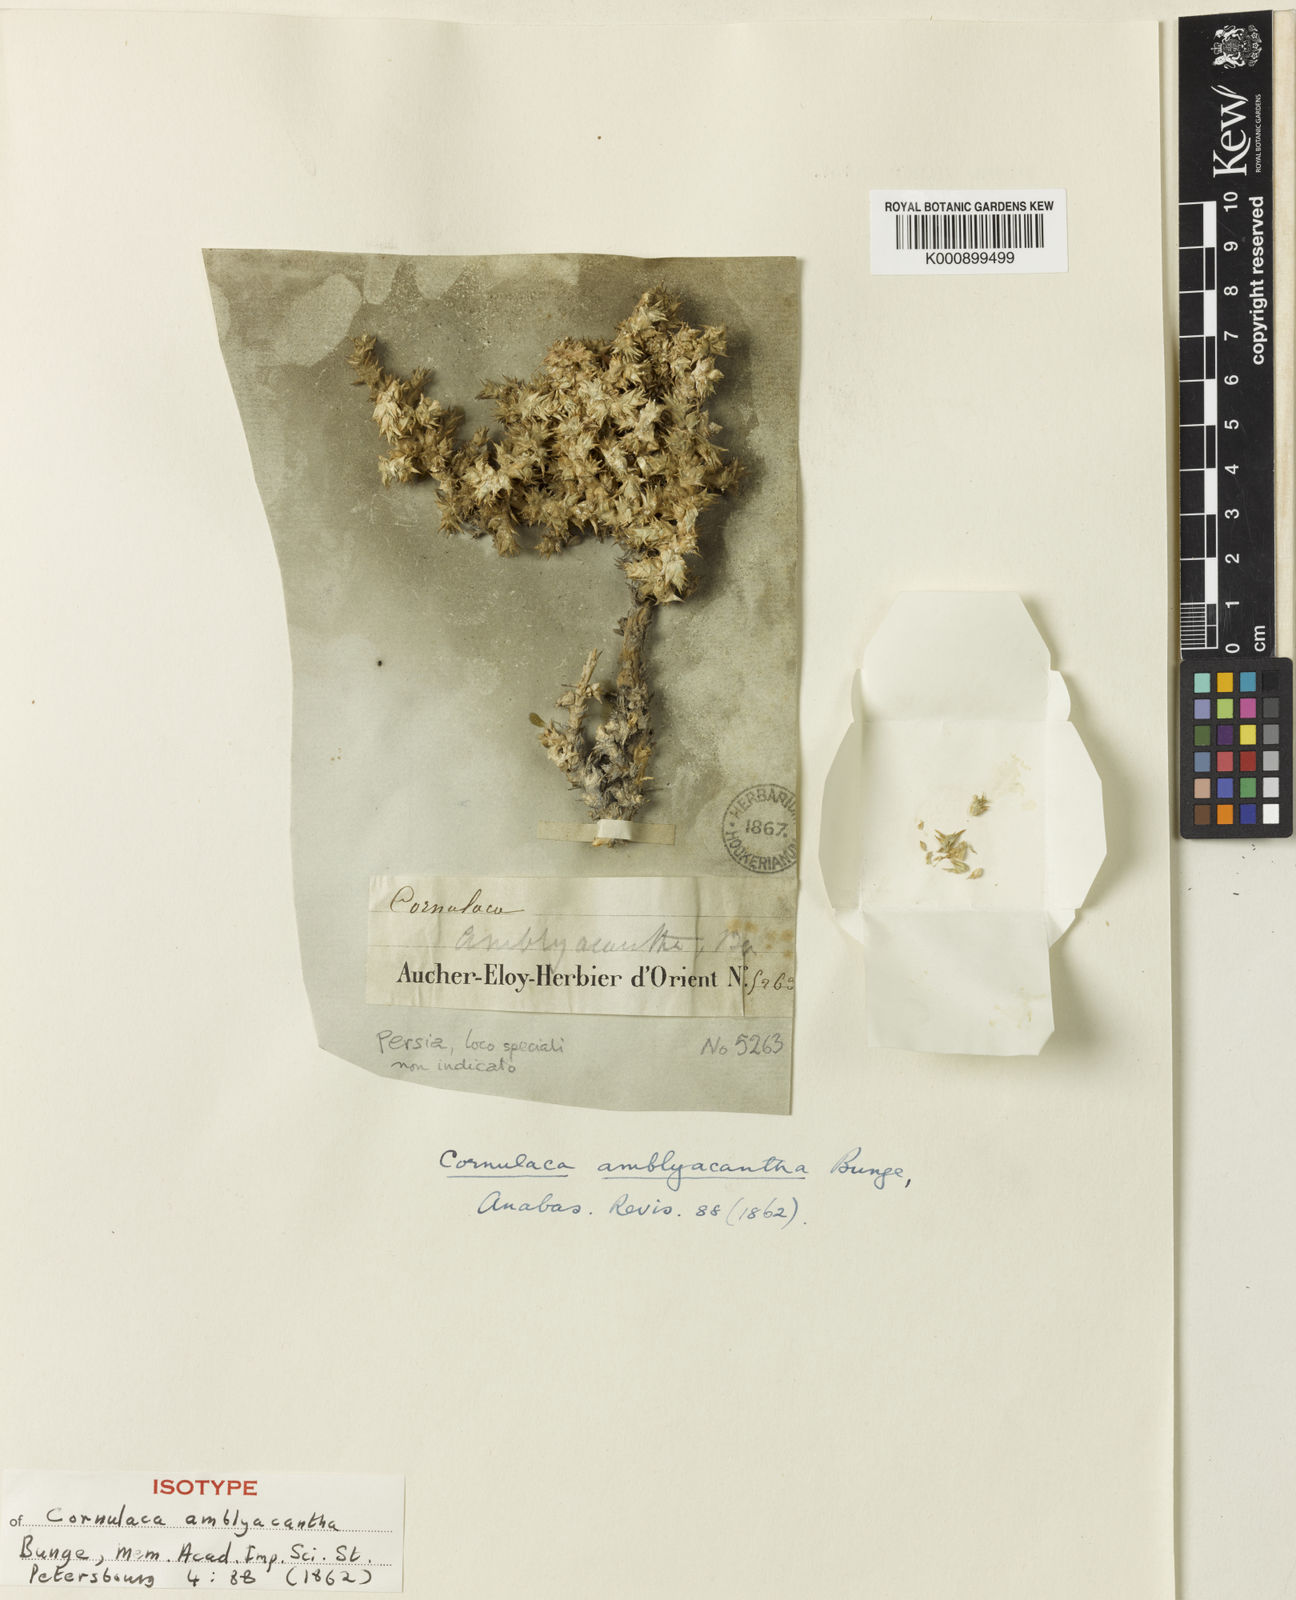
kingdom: Plantae
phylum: Tracheophyta
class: Magnoliopsida
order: Caryophyllales
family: Amaranthaceae
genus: Cornulaca
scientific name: Cornulaca monacantha
